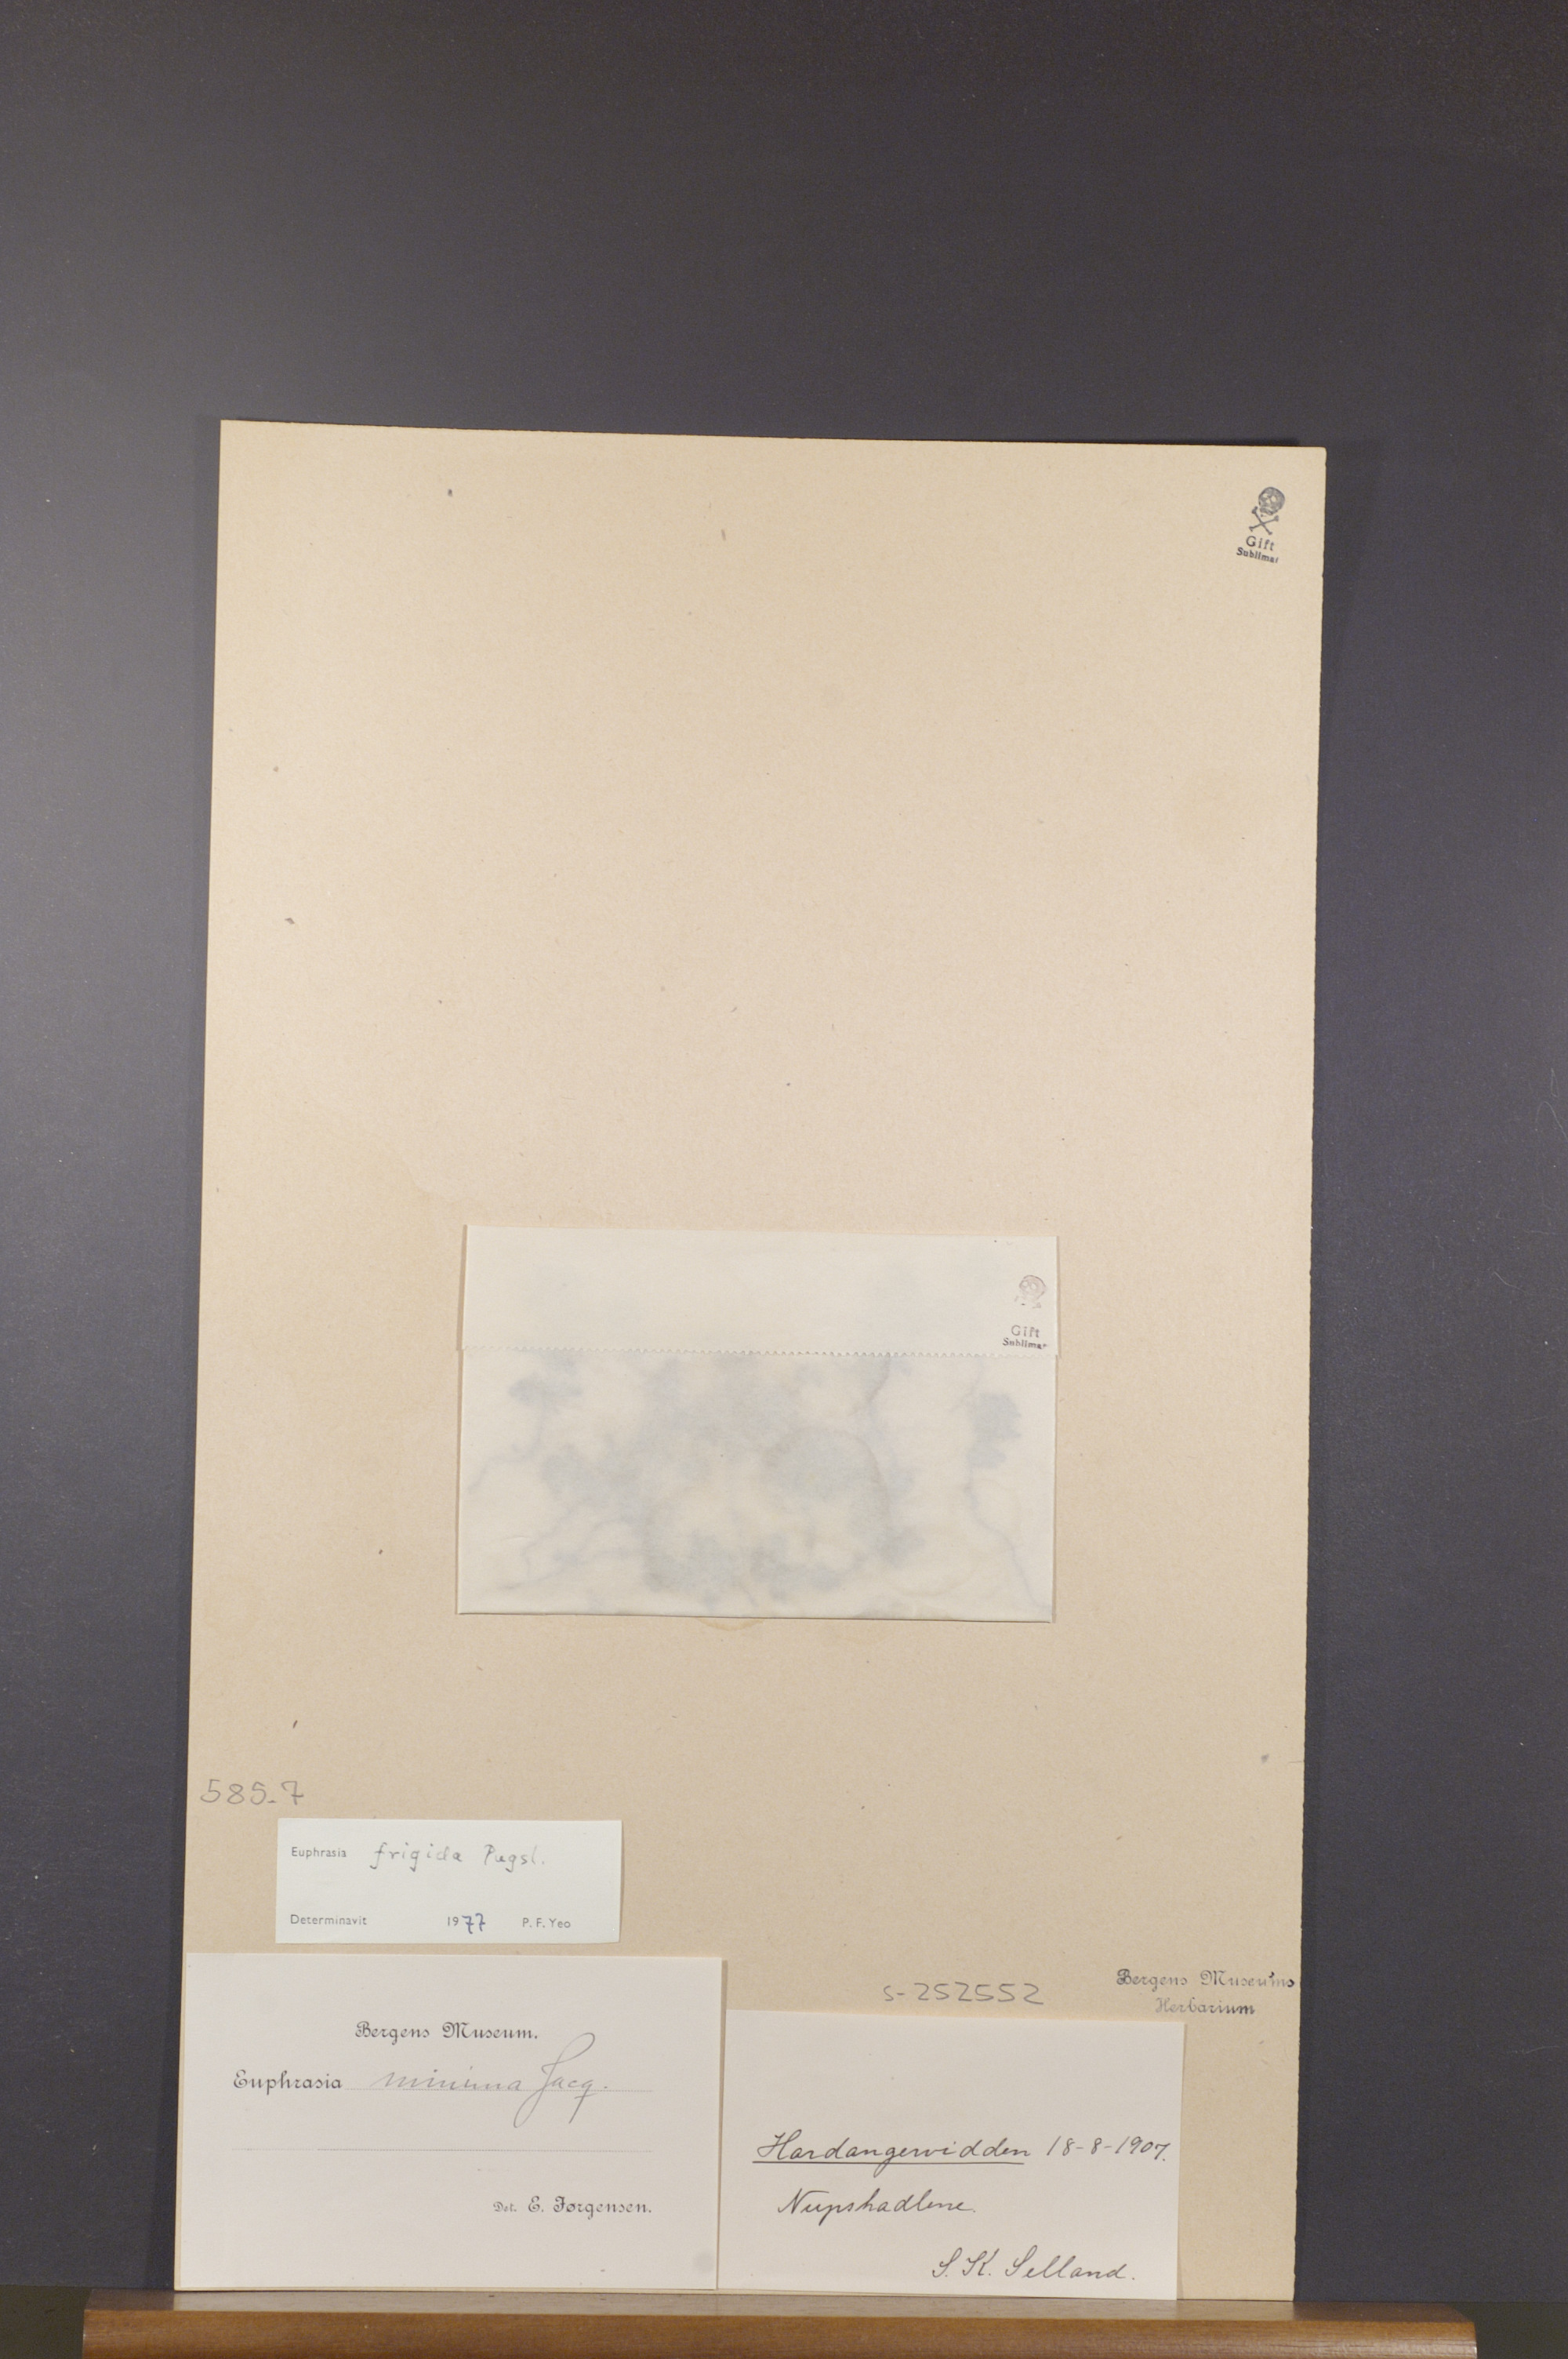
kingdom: Plantae
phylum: Tracheophyta
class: Magnoliopsida
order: Lamiales
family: Orobanchaceae
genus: Euphrasia
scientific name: Euphrasia frigida
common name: An eyebright
